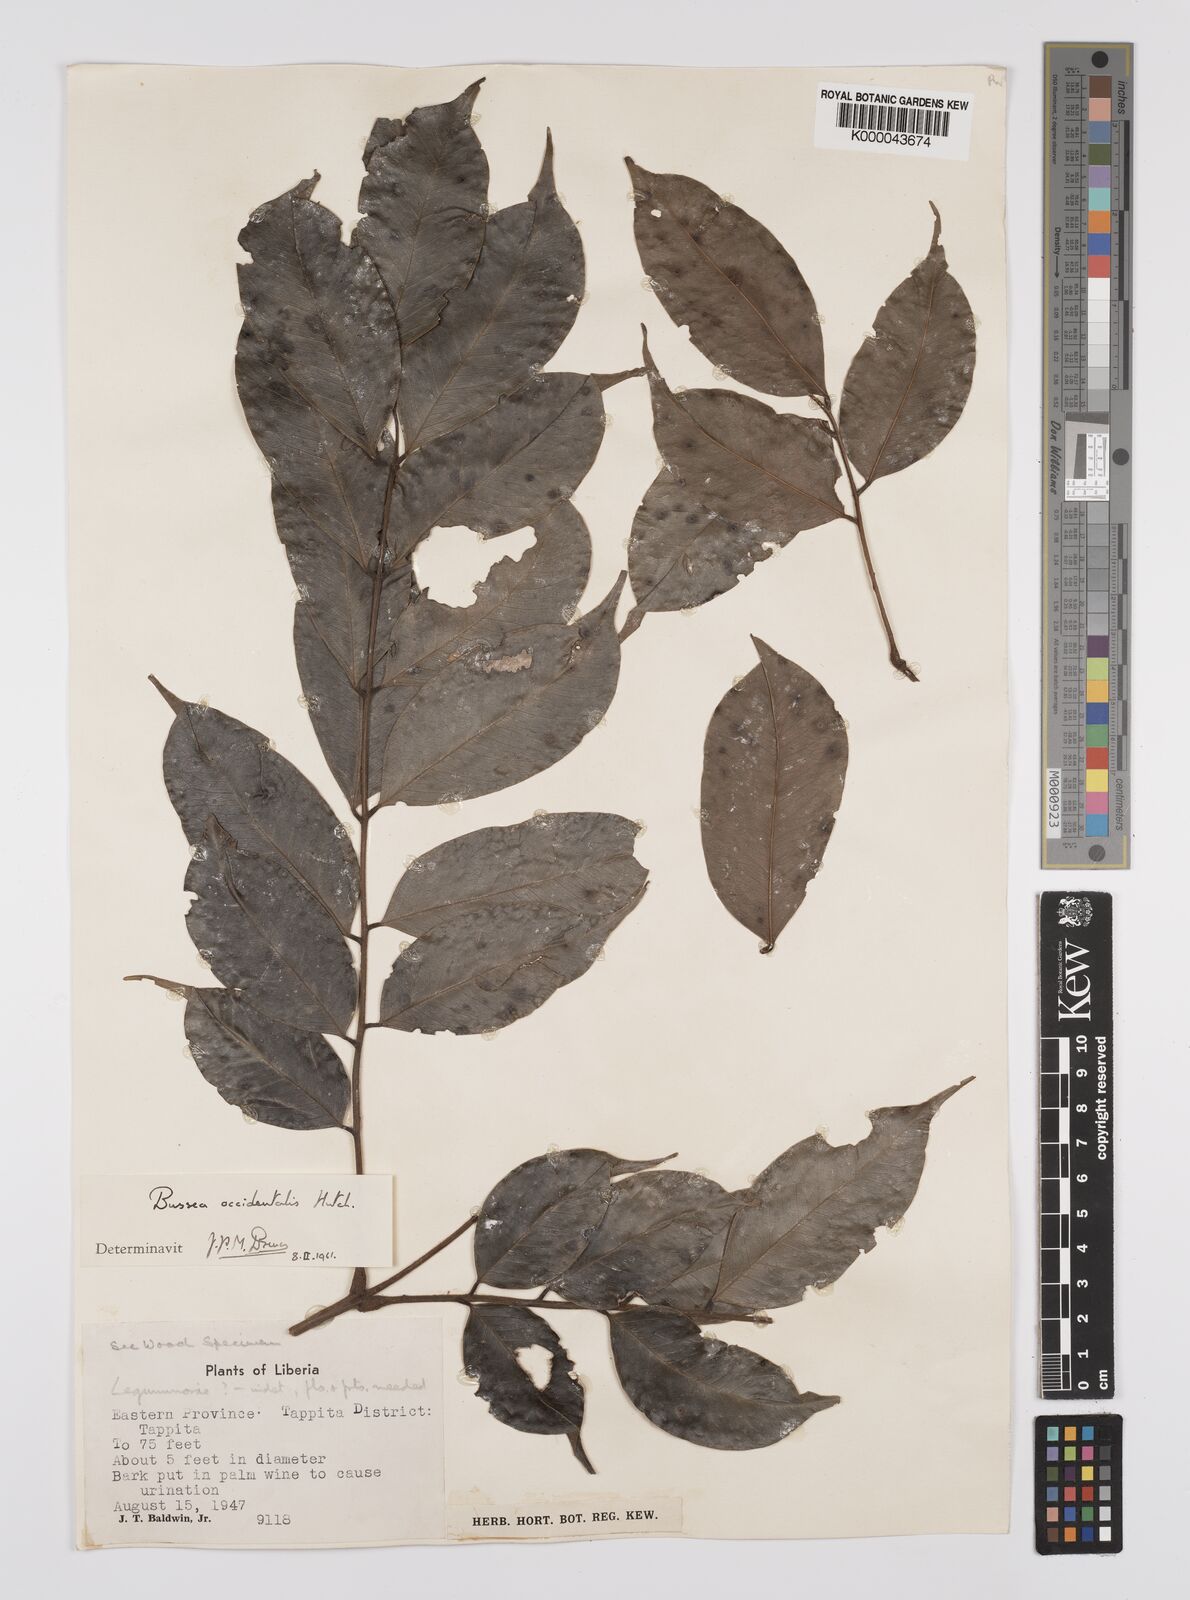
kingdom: Plantae
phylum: Tracheophyta
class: Magnoliopsida
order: Fabales
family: Fabaceae
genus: Bussea
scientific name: Bussea occidentalis
